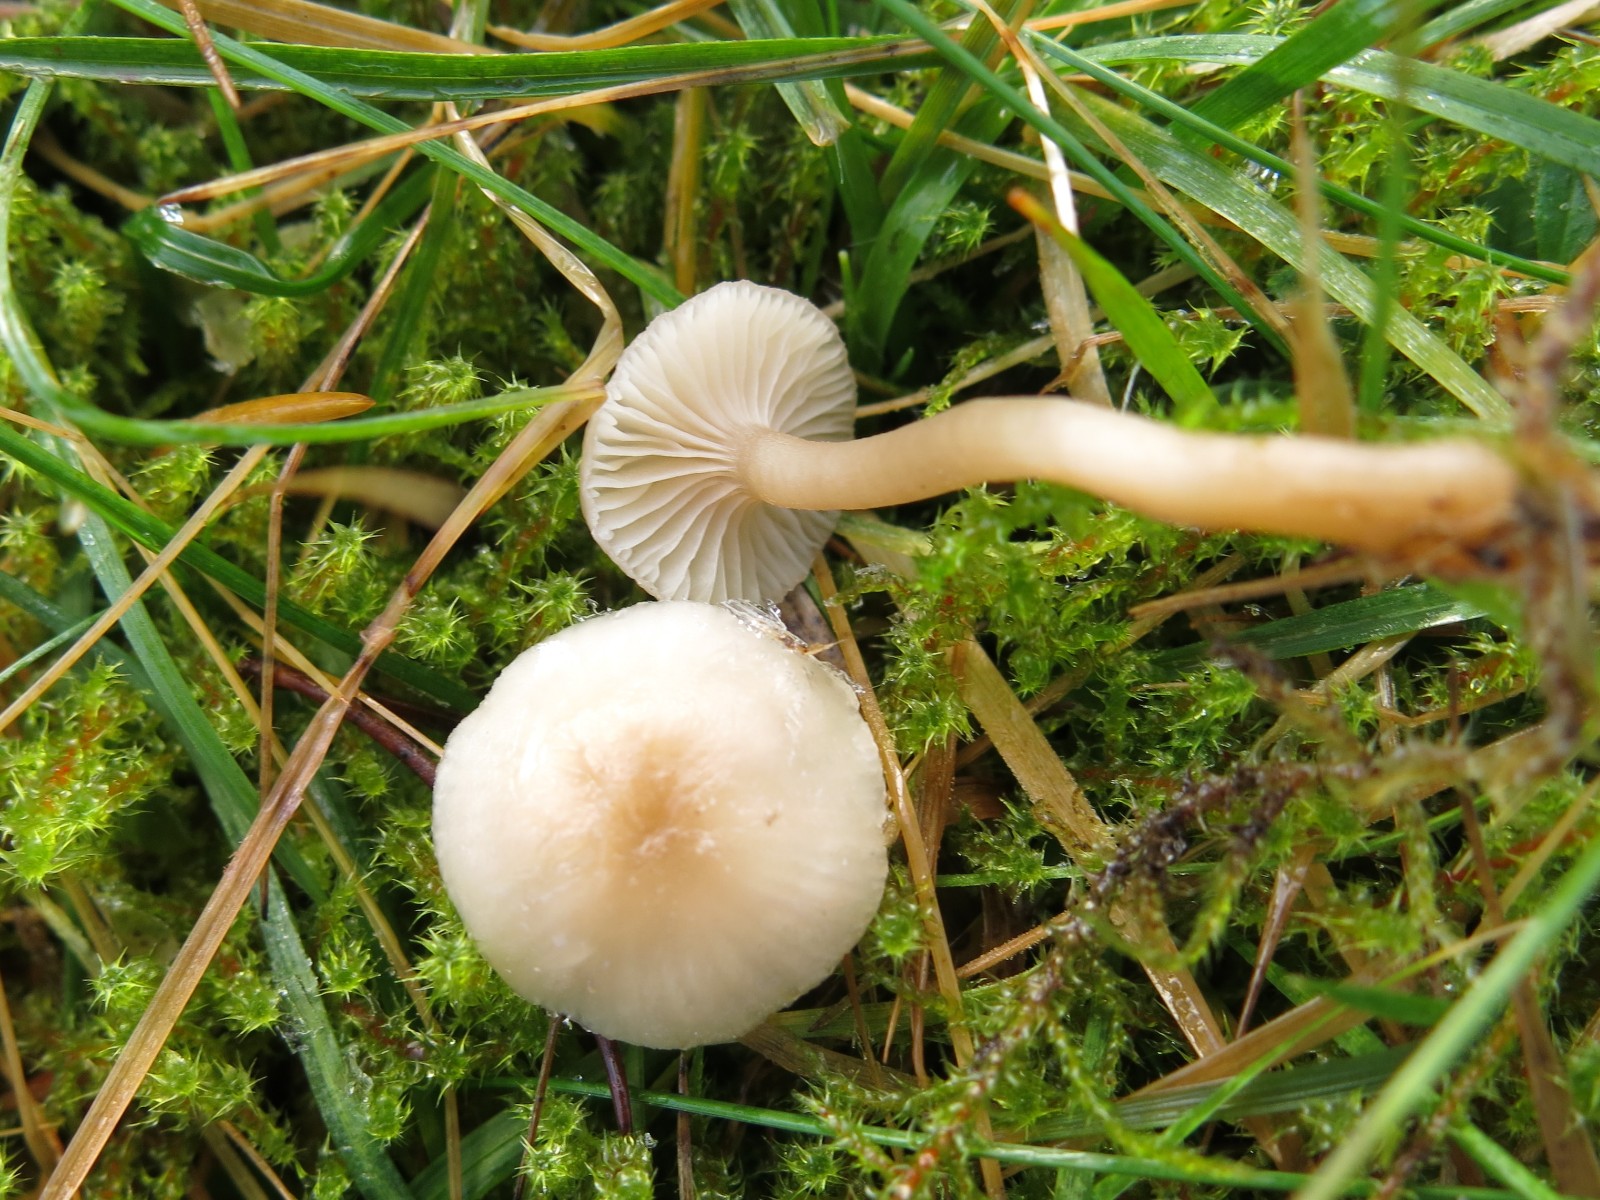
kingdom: Fungi
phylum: Basidiomycota
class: Agaricomycetes
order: Agaricales
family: Hygrophoraceae
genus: Cuphophyllus
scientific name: Cuphophyllus virgineus
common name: snehvid vokshat
